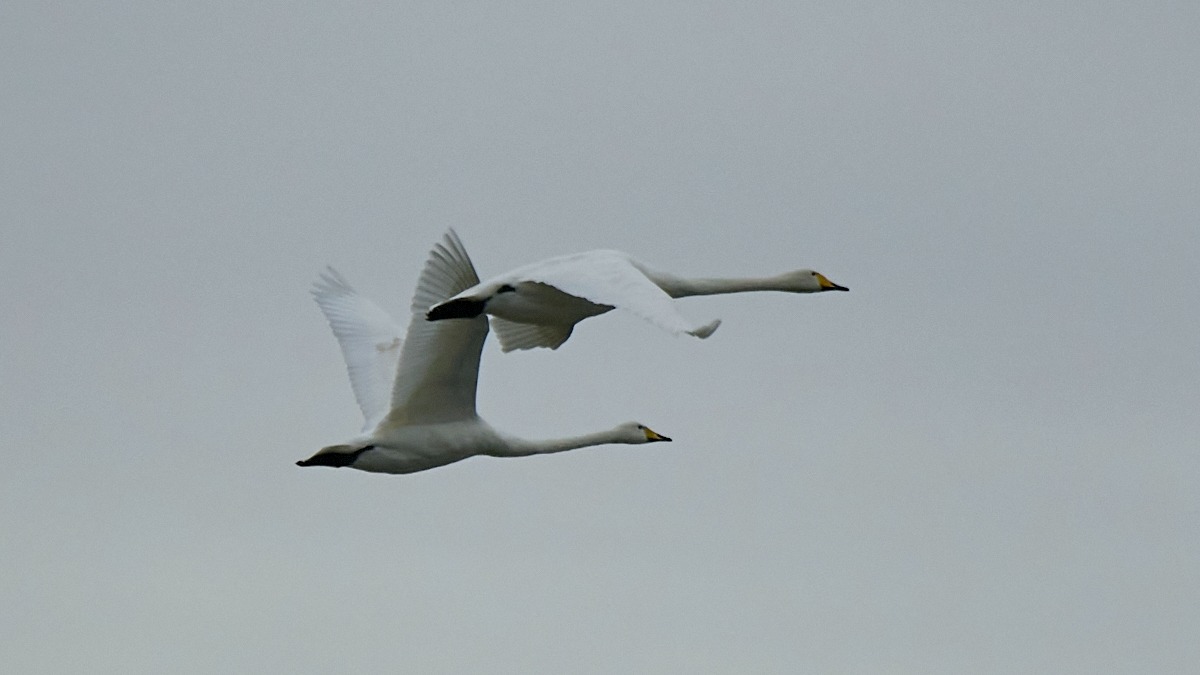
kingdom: Animalia
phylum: Chordata
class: Aves
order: Anseriformes
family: Anatidae
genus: Cygnus
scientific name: Cygnus cygnus
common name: Sangsvane
